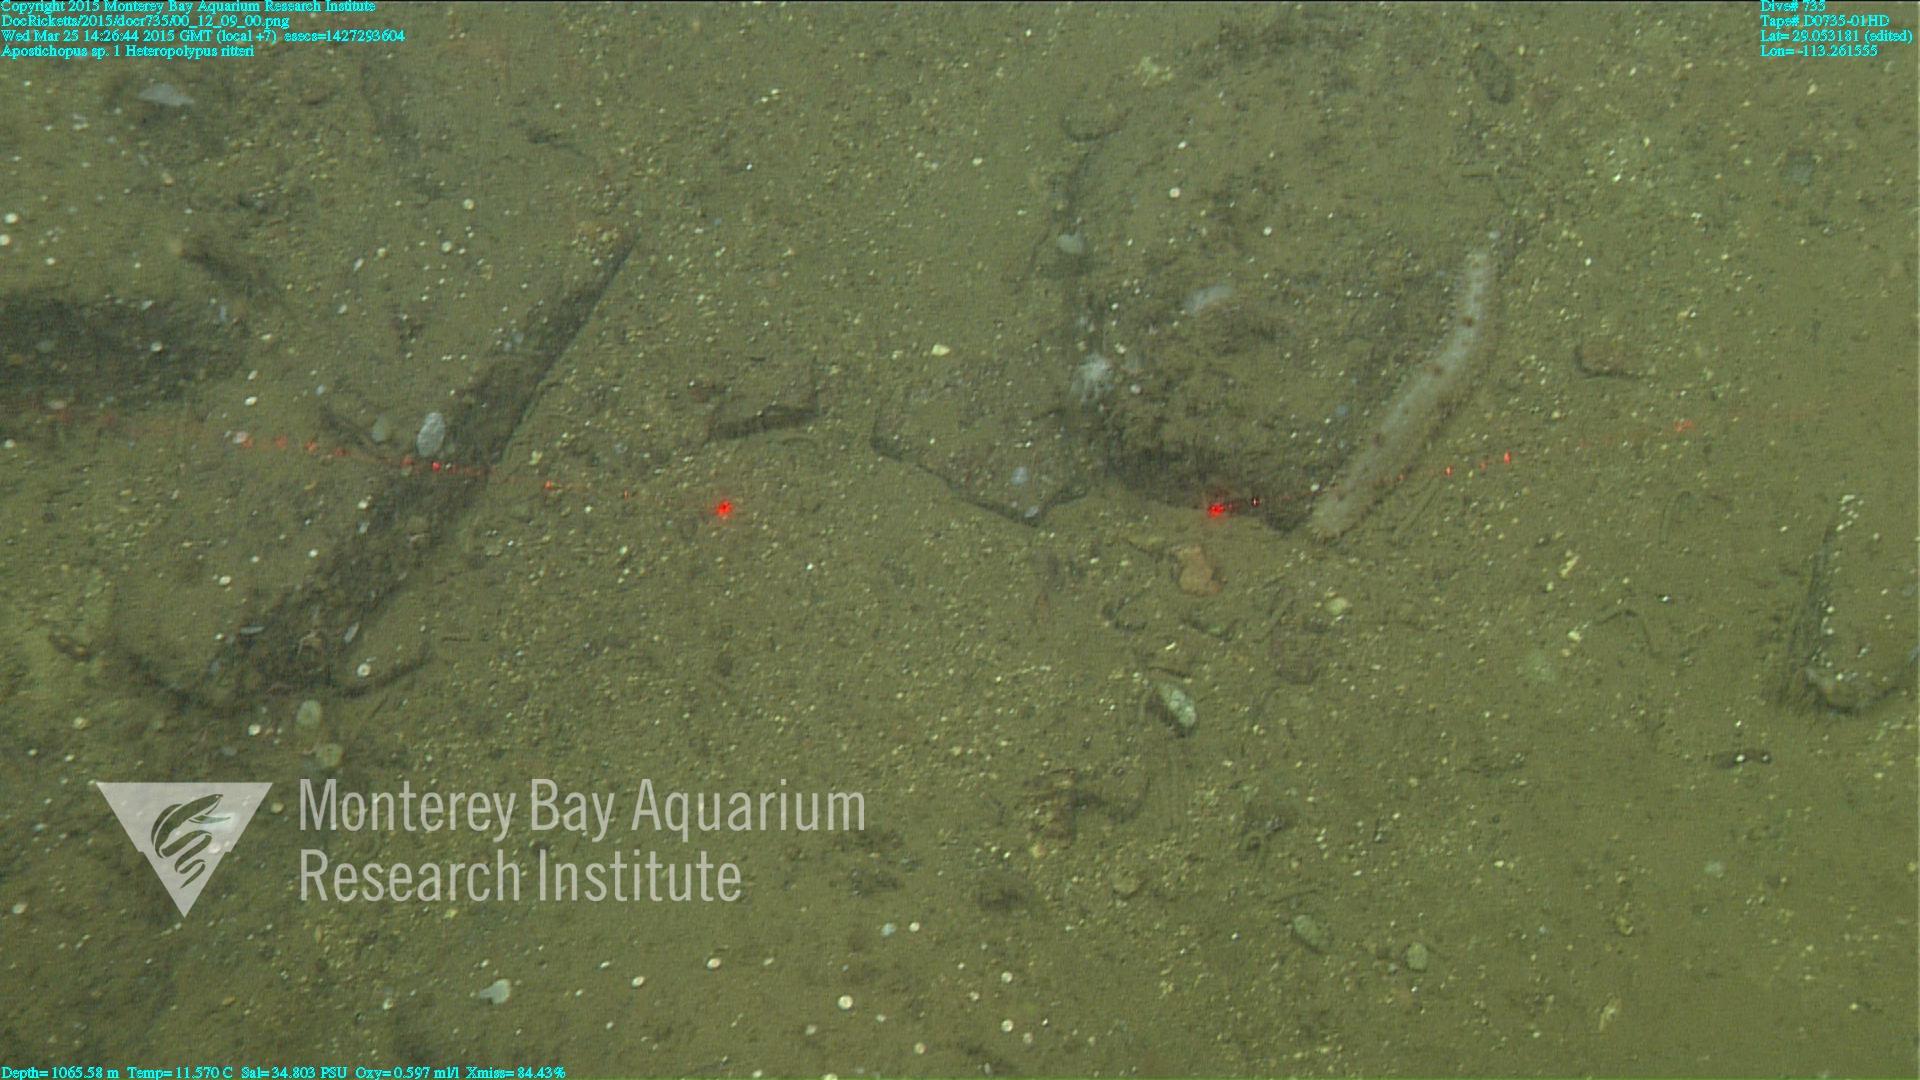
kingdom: Animalia
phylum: Cnidaria
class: Anthozoa
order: Scleralcyonacea
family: Coralliidae
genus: Heteropolypus
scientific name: Heteropolypus ritteri
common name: Ritter's soft coral
